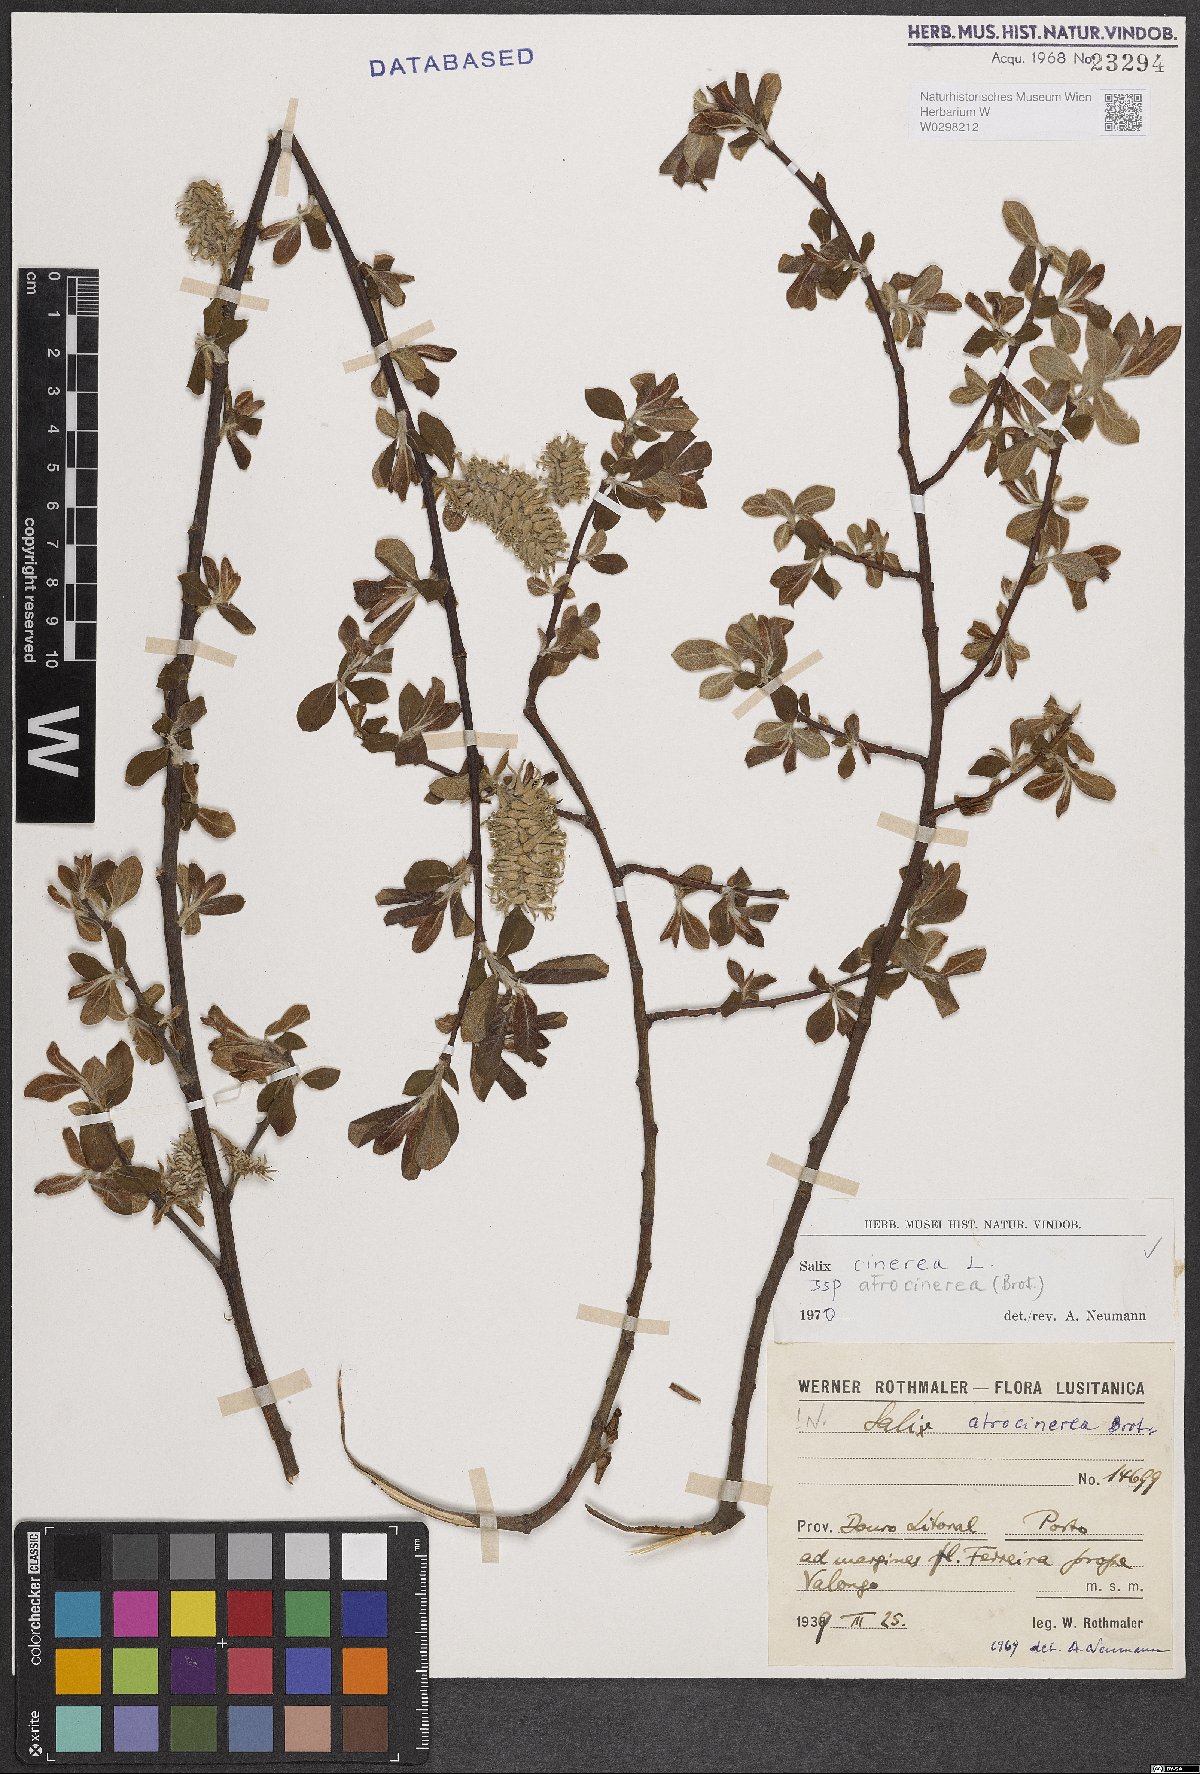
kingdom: Plantae
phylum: Tracheophyta
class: Magnoliopsida
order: Malpighiales
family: Salicaceae
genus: Salix
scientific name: Salix atrocinerea
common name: Rusty willow
